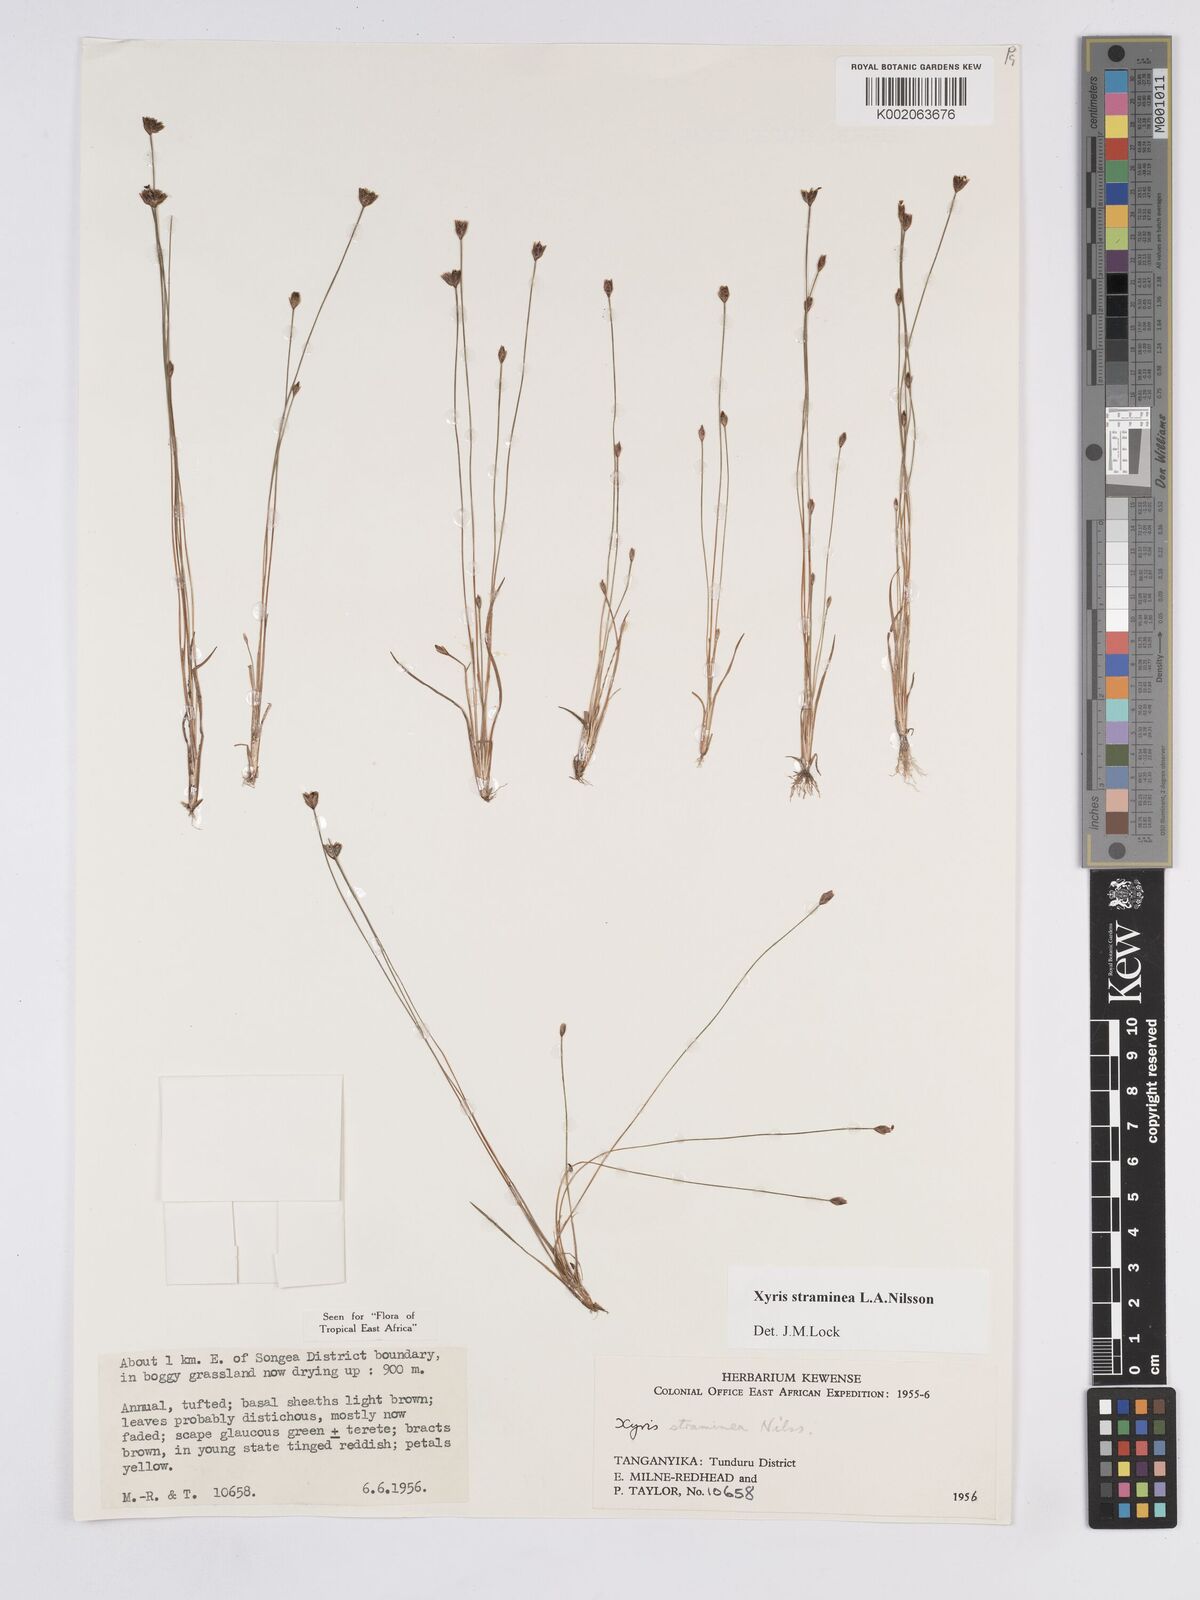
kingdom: Plantae
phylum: Tracheophyta
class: Liliopsida
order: Poales
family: Xyridaceae
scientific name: Xyridaceae
